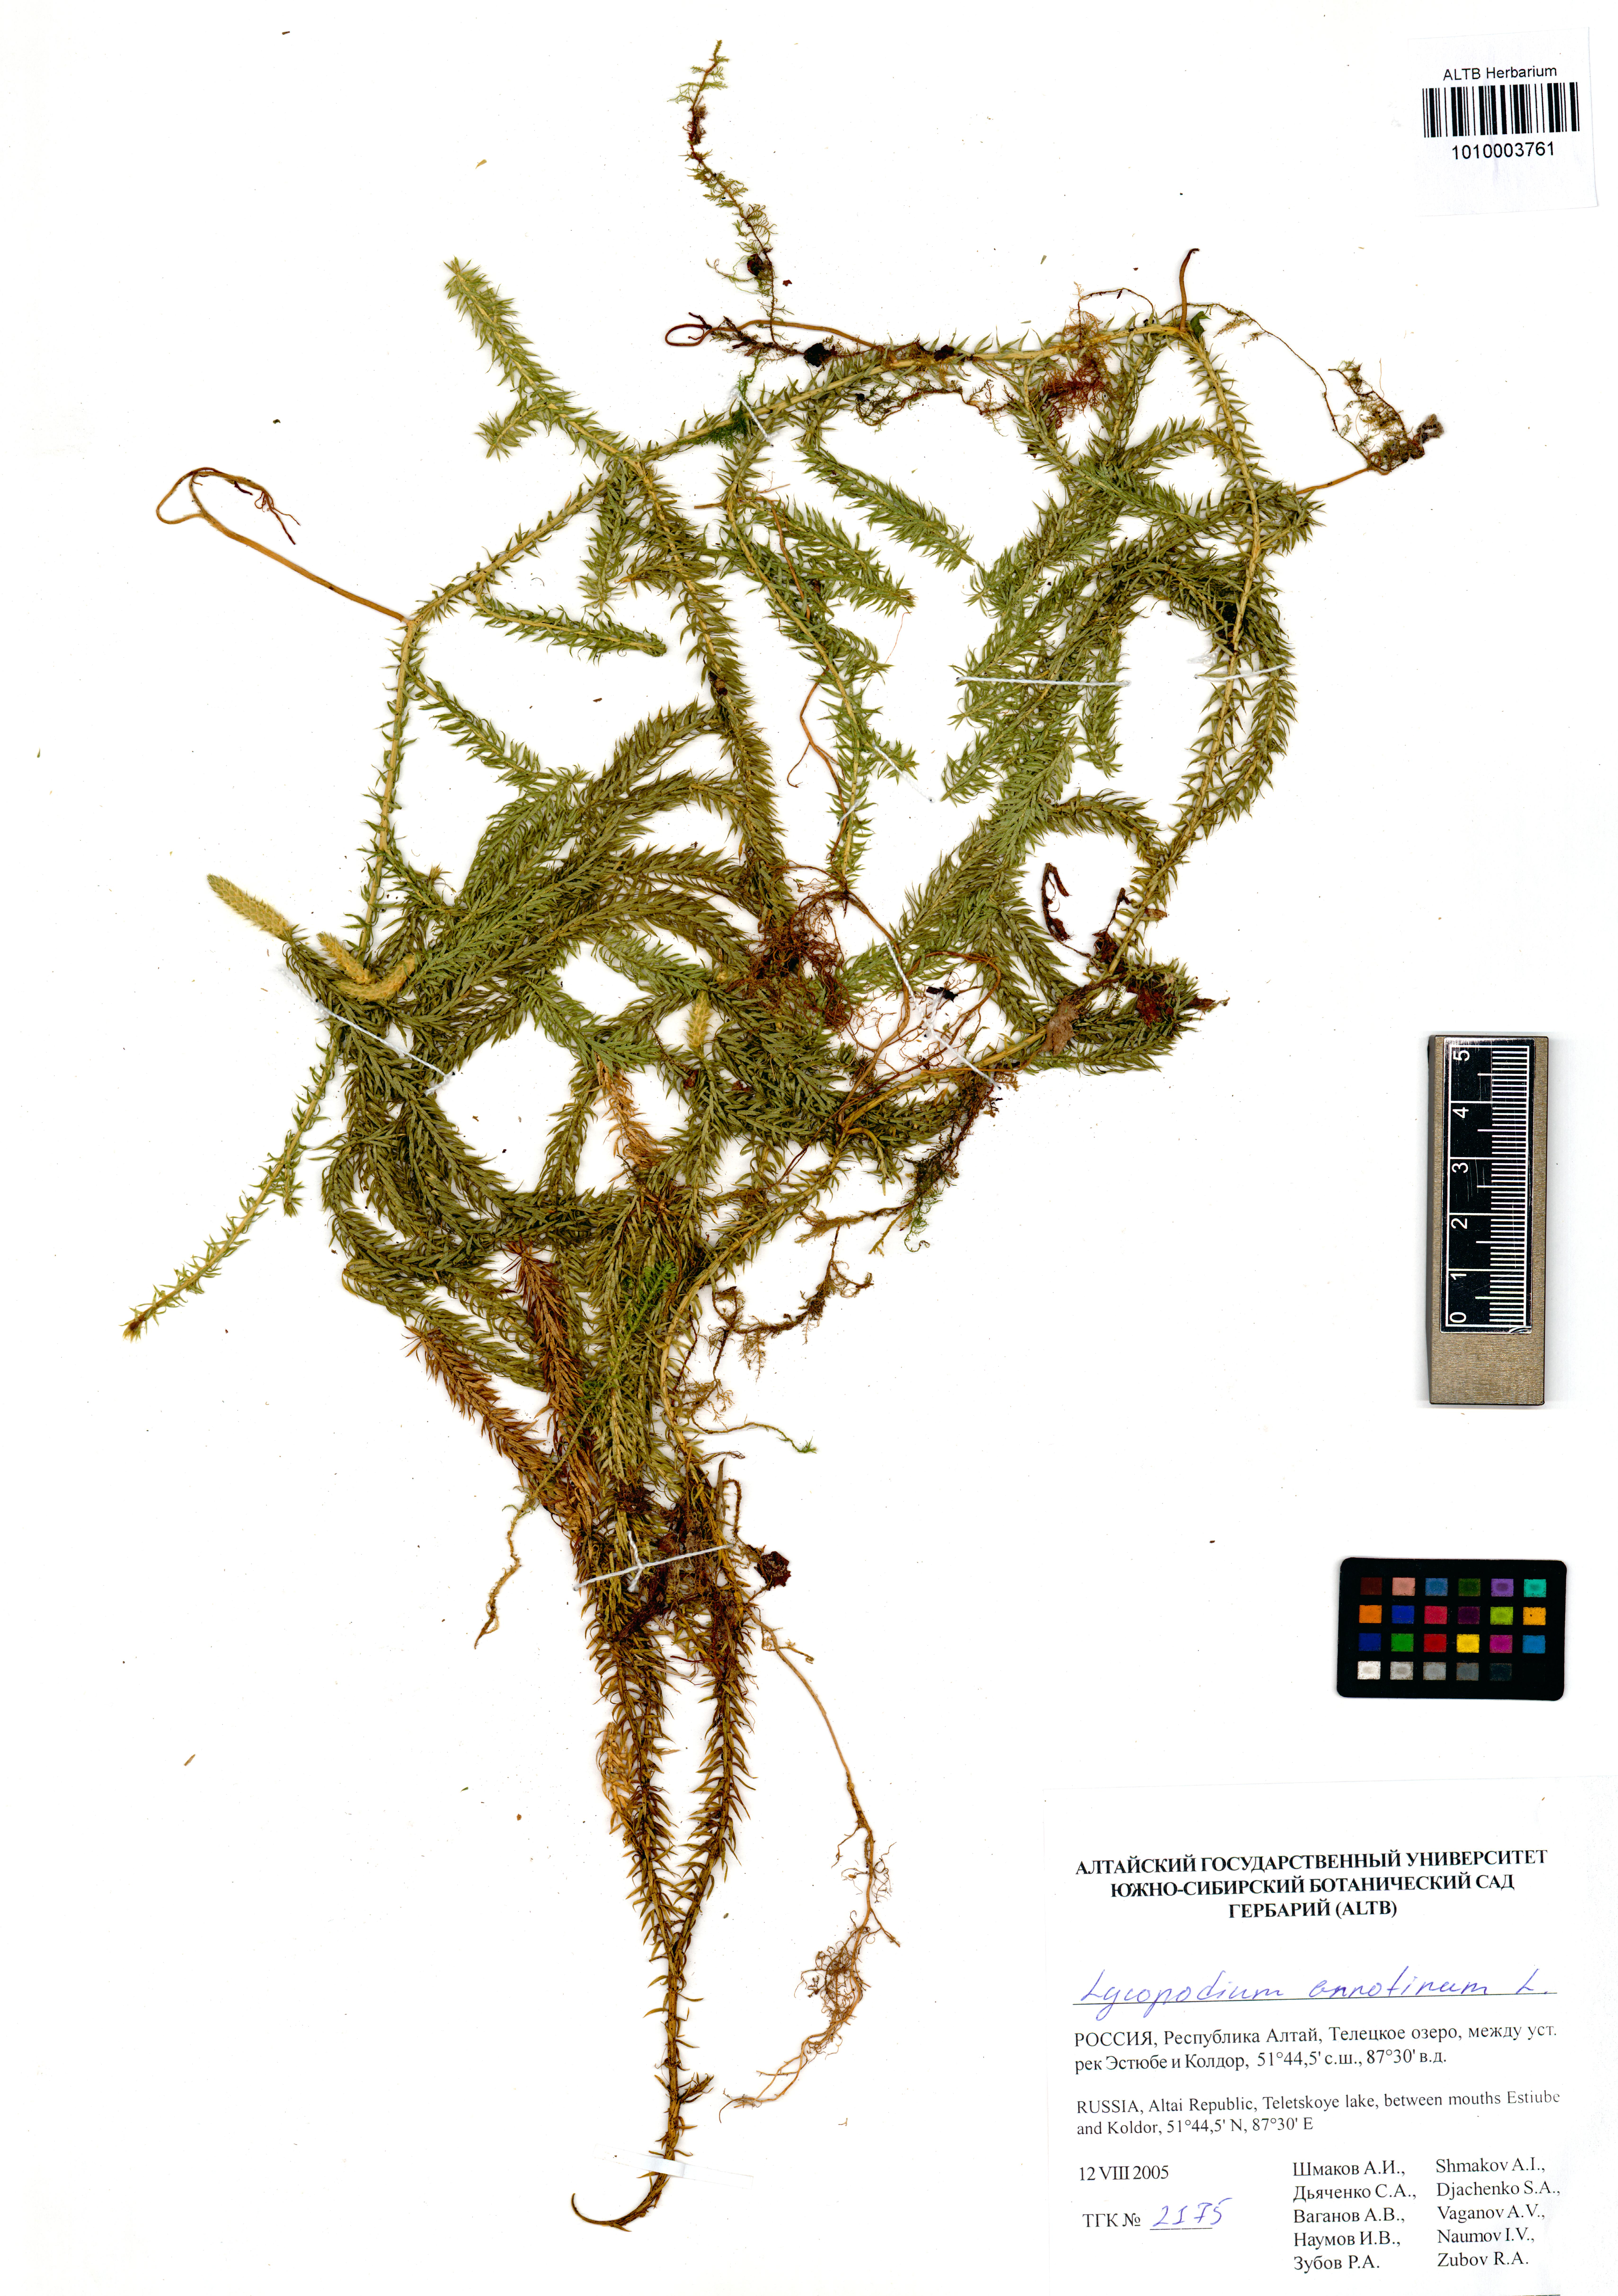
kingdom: Plantae
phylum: Tracheophyta
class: Lycopodiopsida
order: Lycopodiales
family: Lycopodiaceae
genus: Spinulum
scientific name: Spinulum annotinum
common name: Interrupted club-moss
